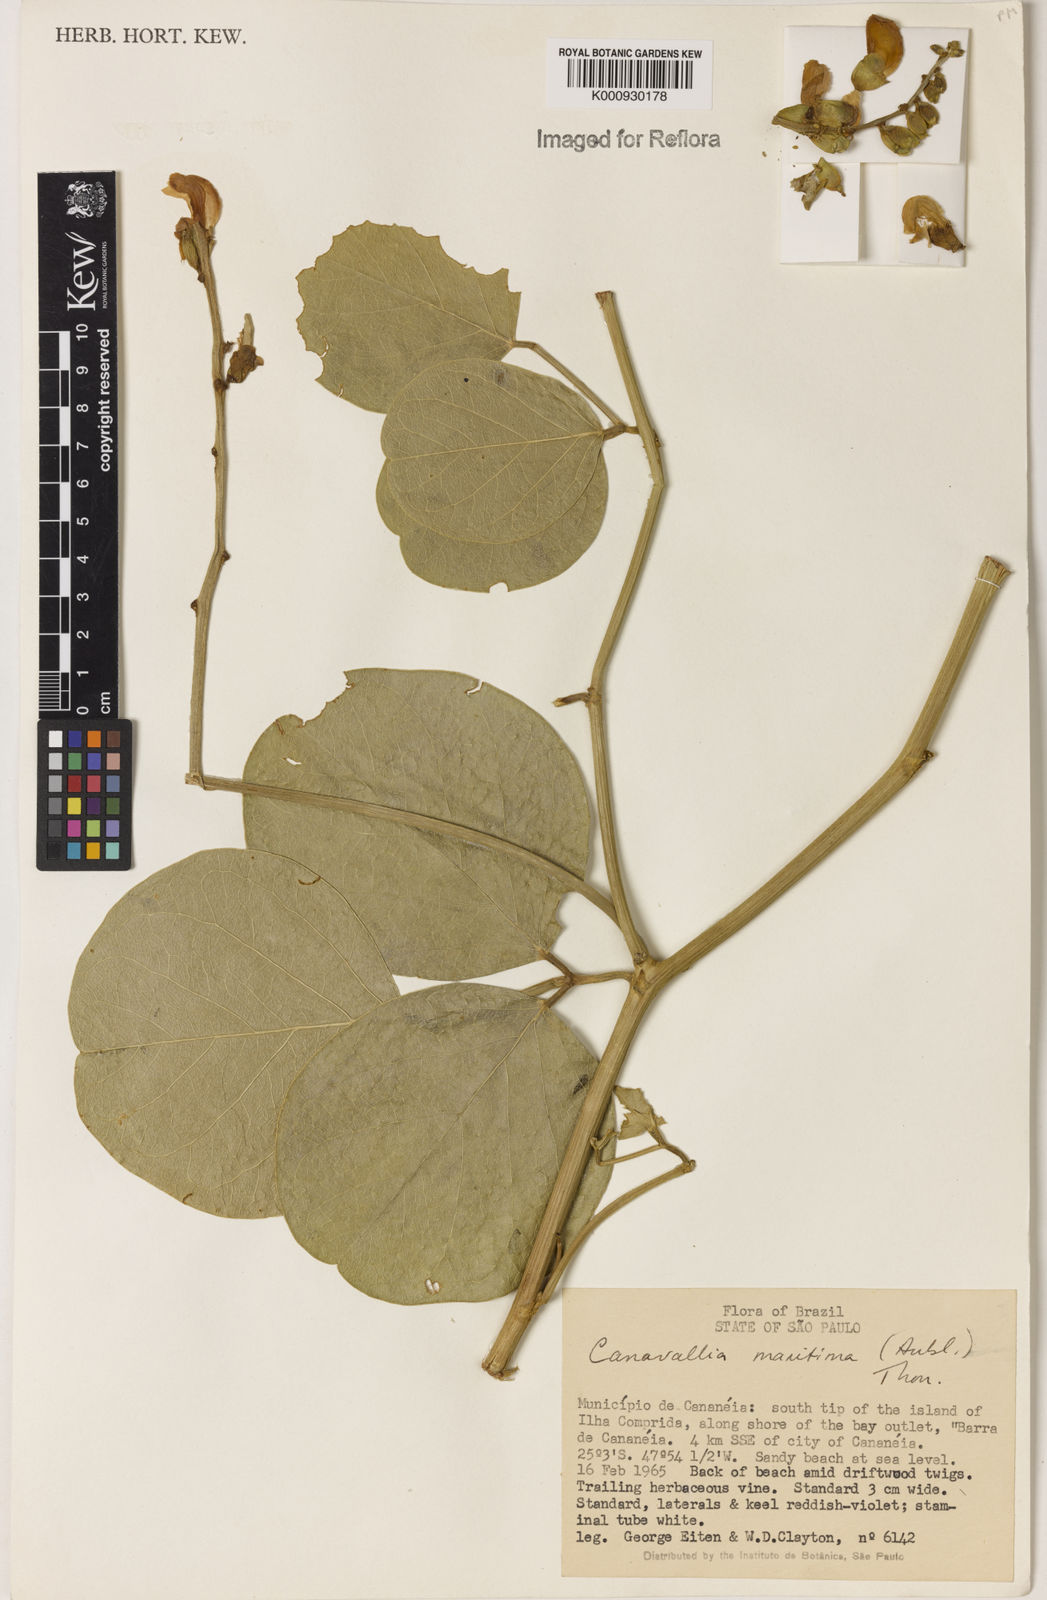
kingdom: Plantae
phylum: Tracheophyta
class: Magnoliopsida
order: Fabales
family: Fabaceae
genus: Canavalia
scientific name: Canavalia rosea
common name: Beach-bean
